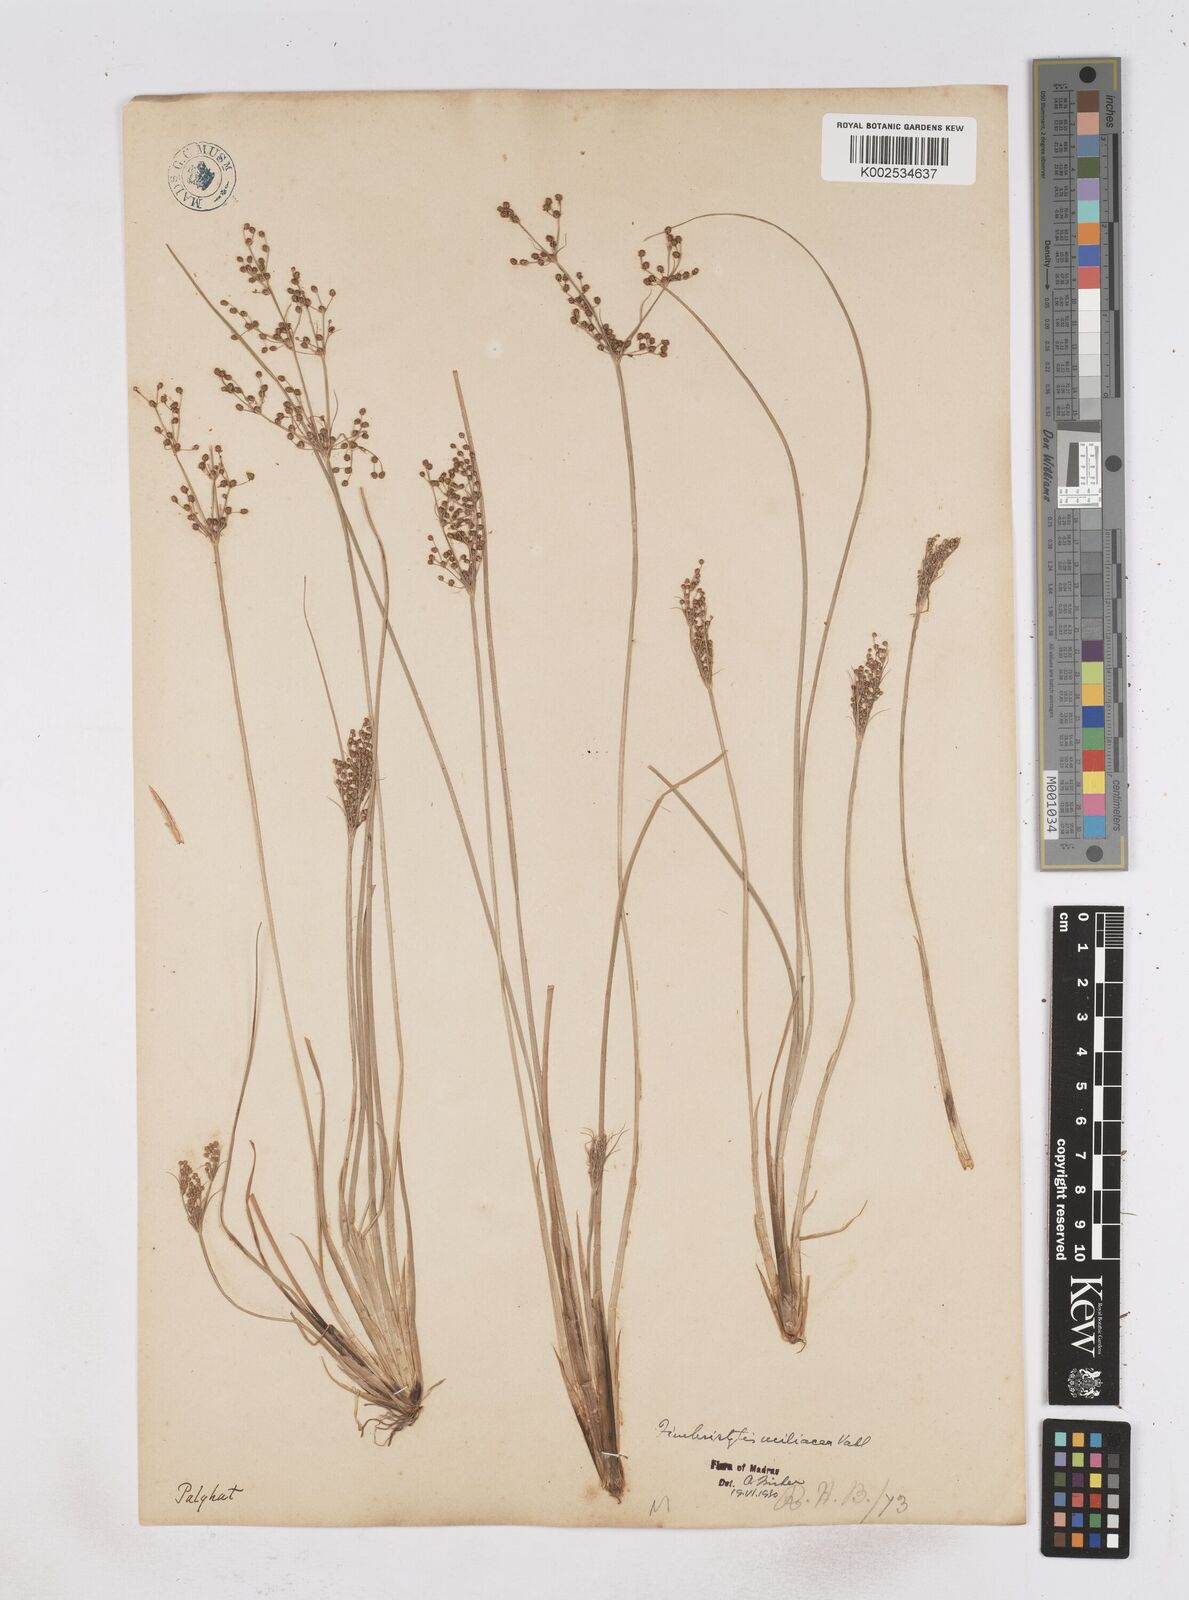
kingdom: Plantae
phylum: Tracheophyta
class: Liliopsida
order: Poales
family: Cyperaceae
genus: Fimbristylis
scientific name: Fimbristylis littoralis
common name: Fimbry
